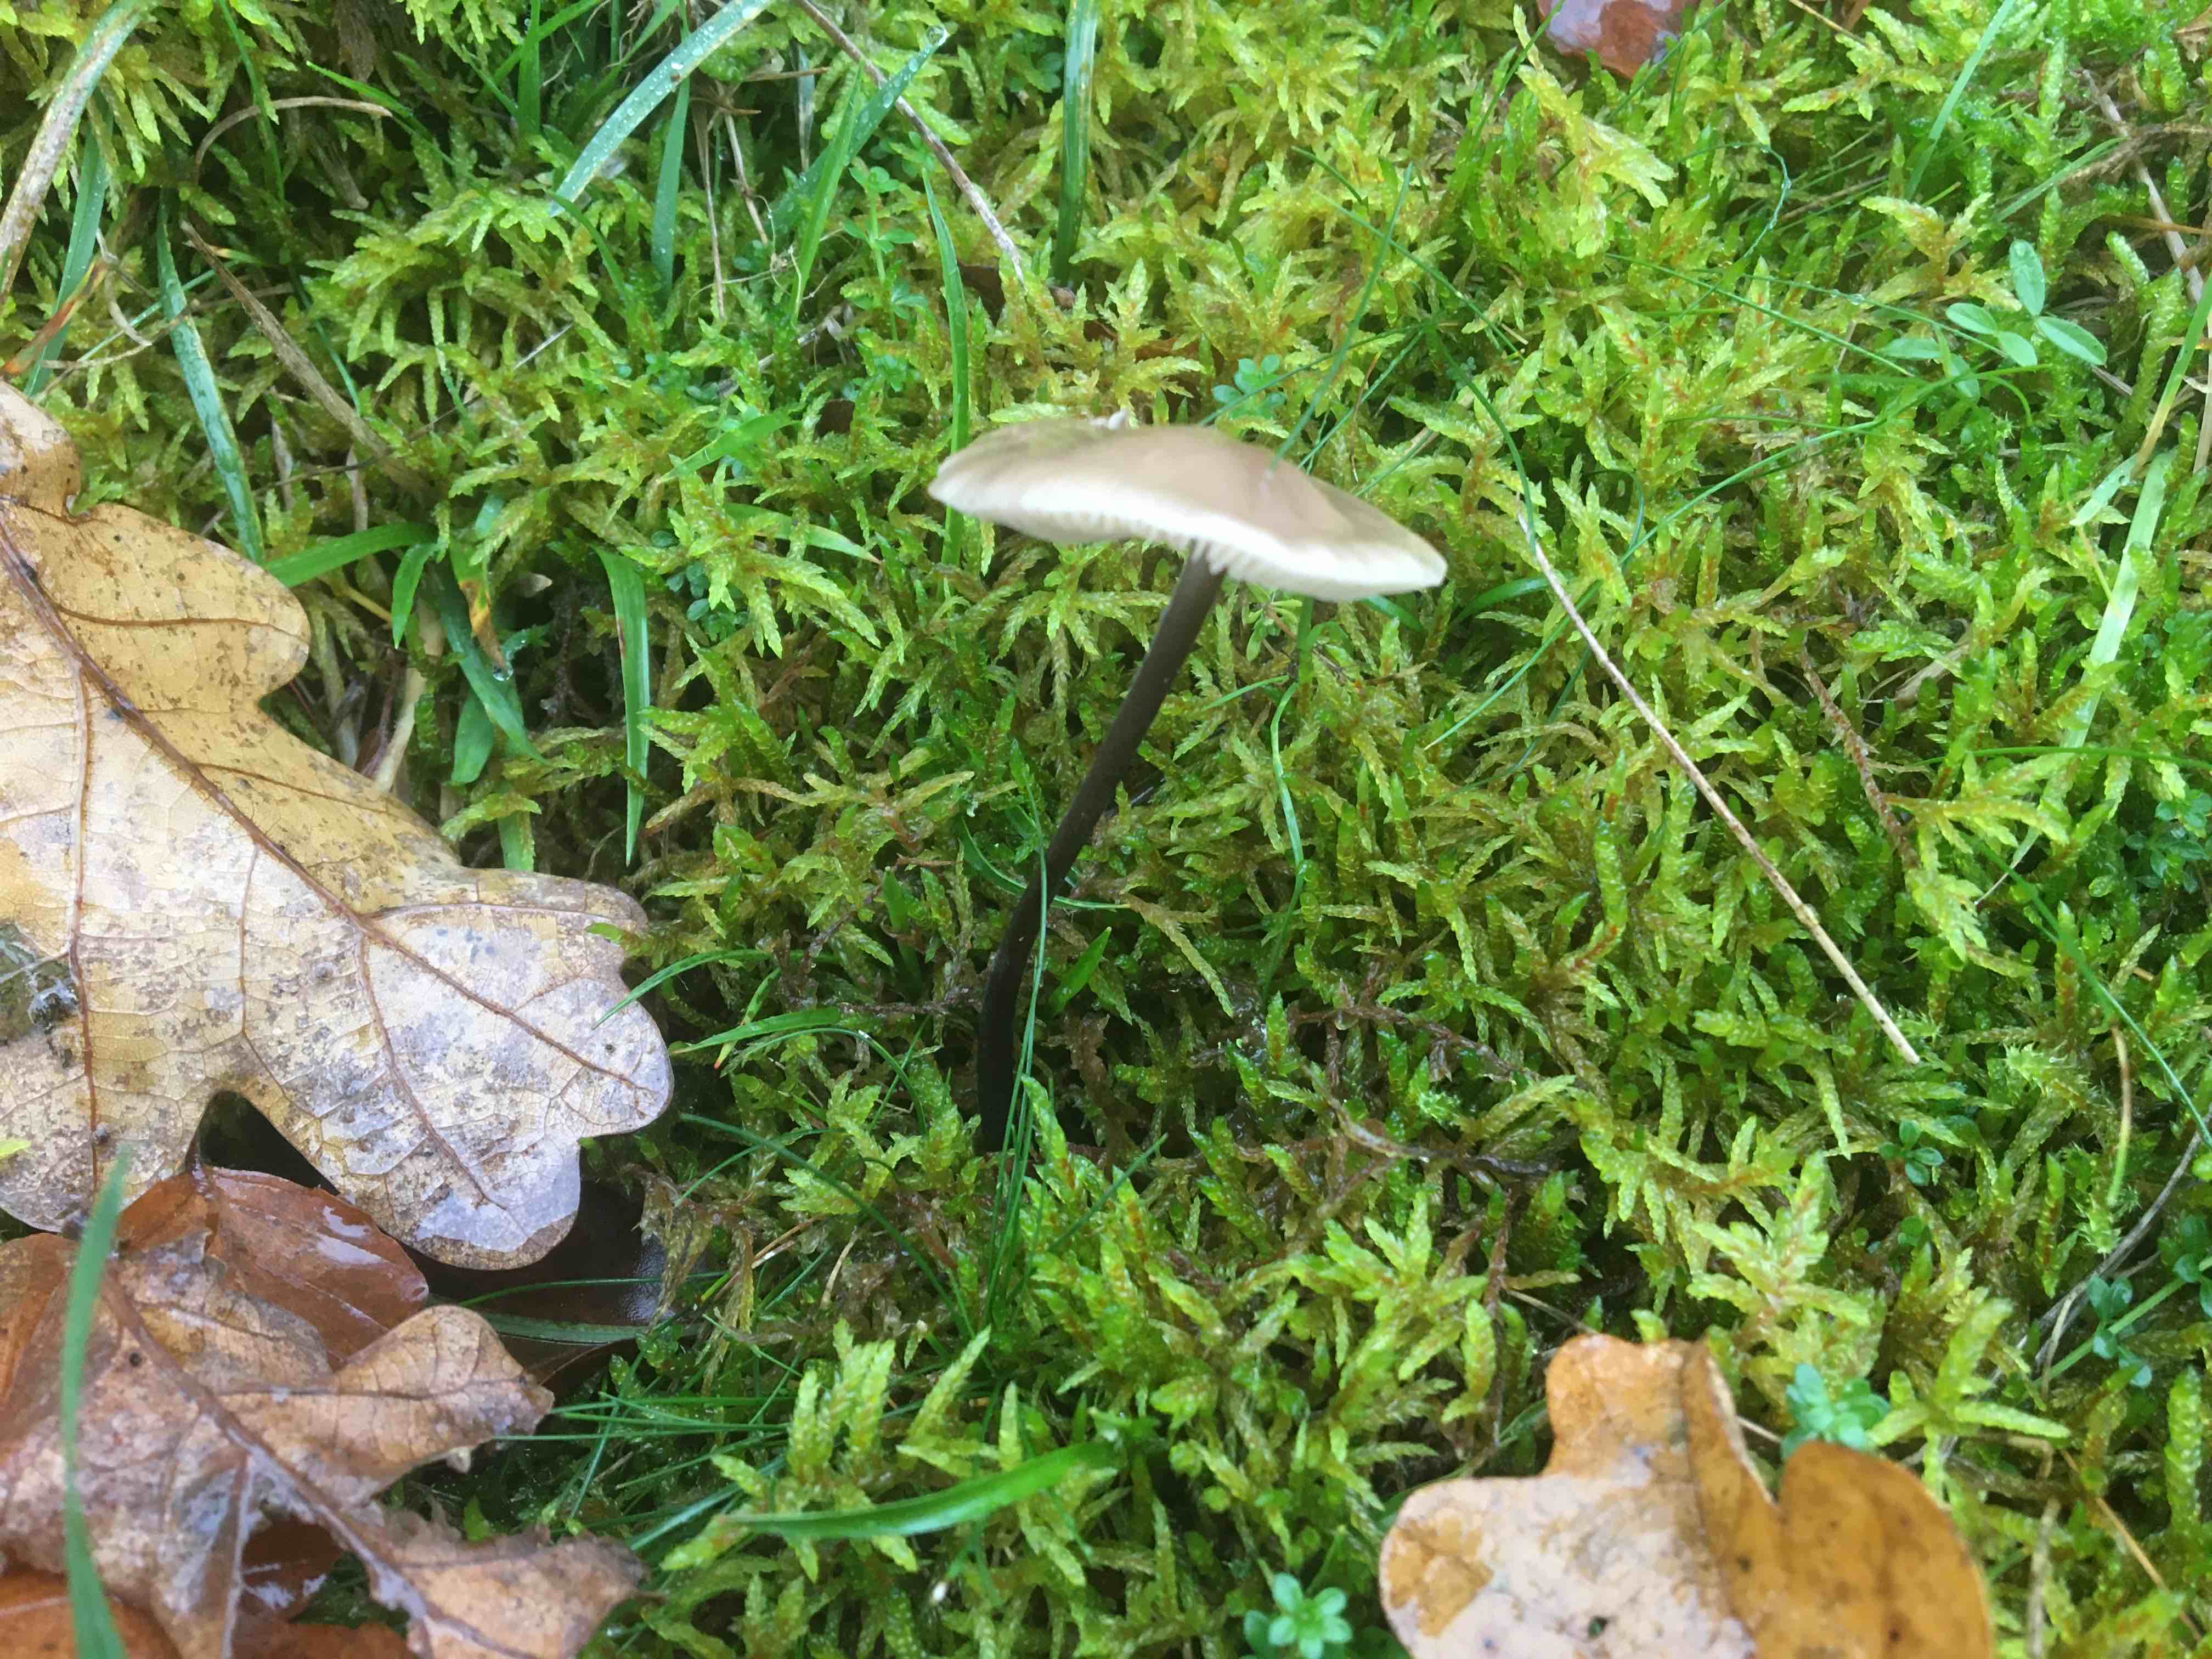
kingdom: Fungi
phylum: Basidiomycota
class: Agaricomycetes
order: Agaricales
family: Omphalotaceae
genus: Mycetinis
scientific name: Mycetinis alliaceus
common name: stor løghat
